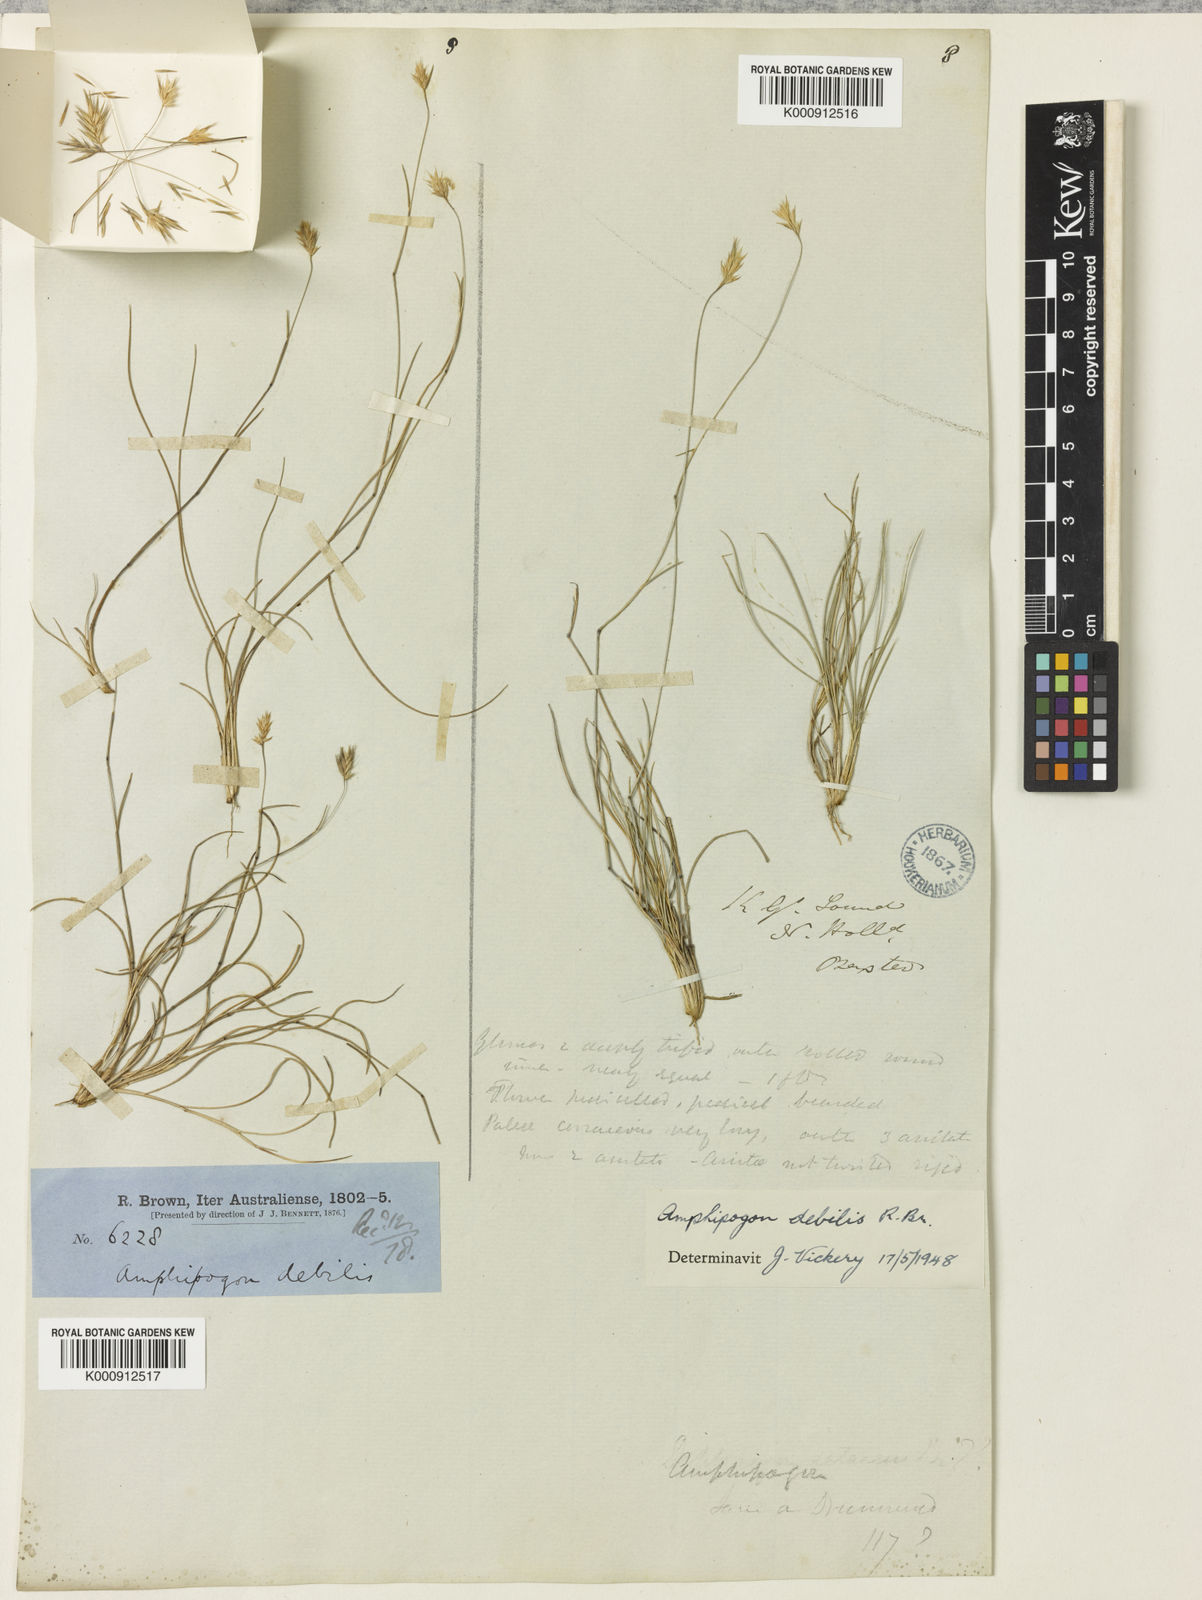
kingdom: Plantae
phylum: Tracheophyta
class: Liliopsida
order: Poales
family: Poaceae
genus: Amphipogon
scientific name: Amphipogon debilis
